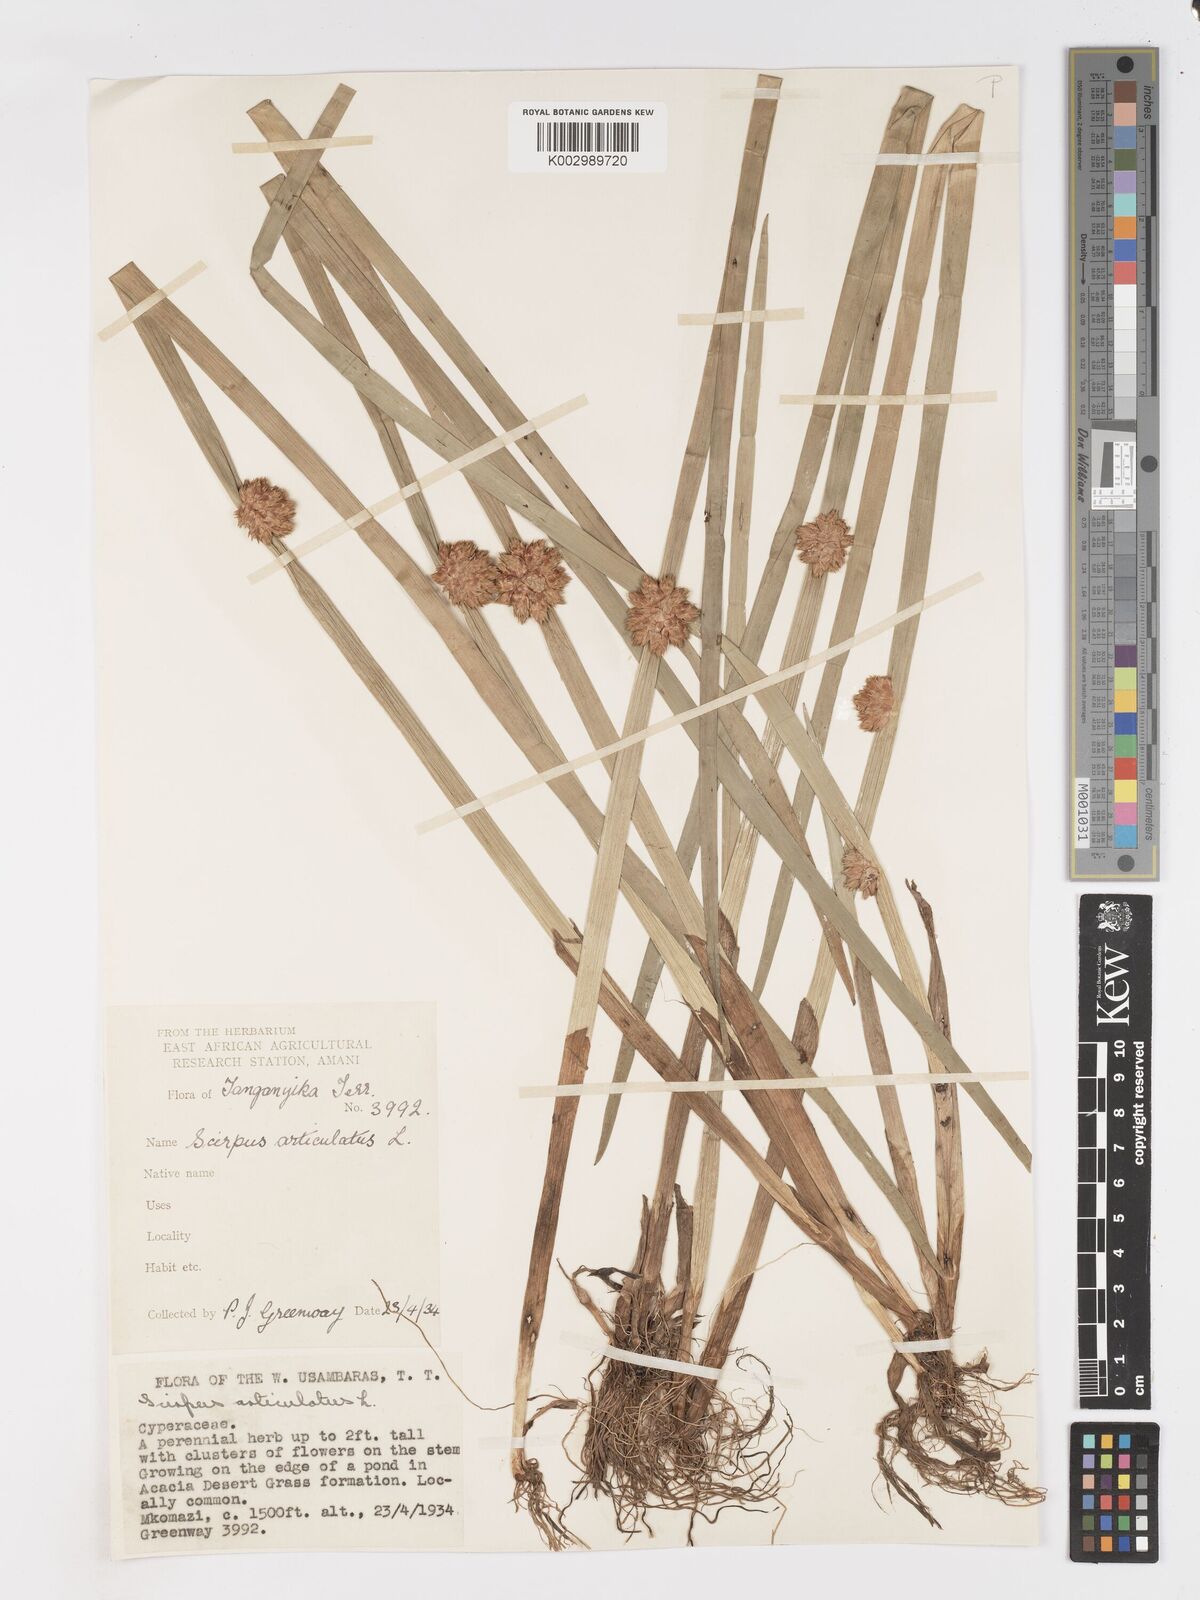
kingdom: Plantae
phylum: Tracheophyta
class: Liliopsida
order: Poales
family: Cyperaceae
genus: Schoenoplectiella
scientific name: Schoenoplectiella articulata
